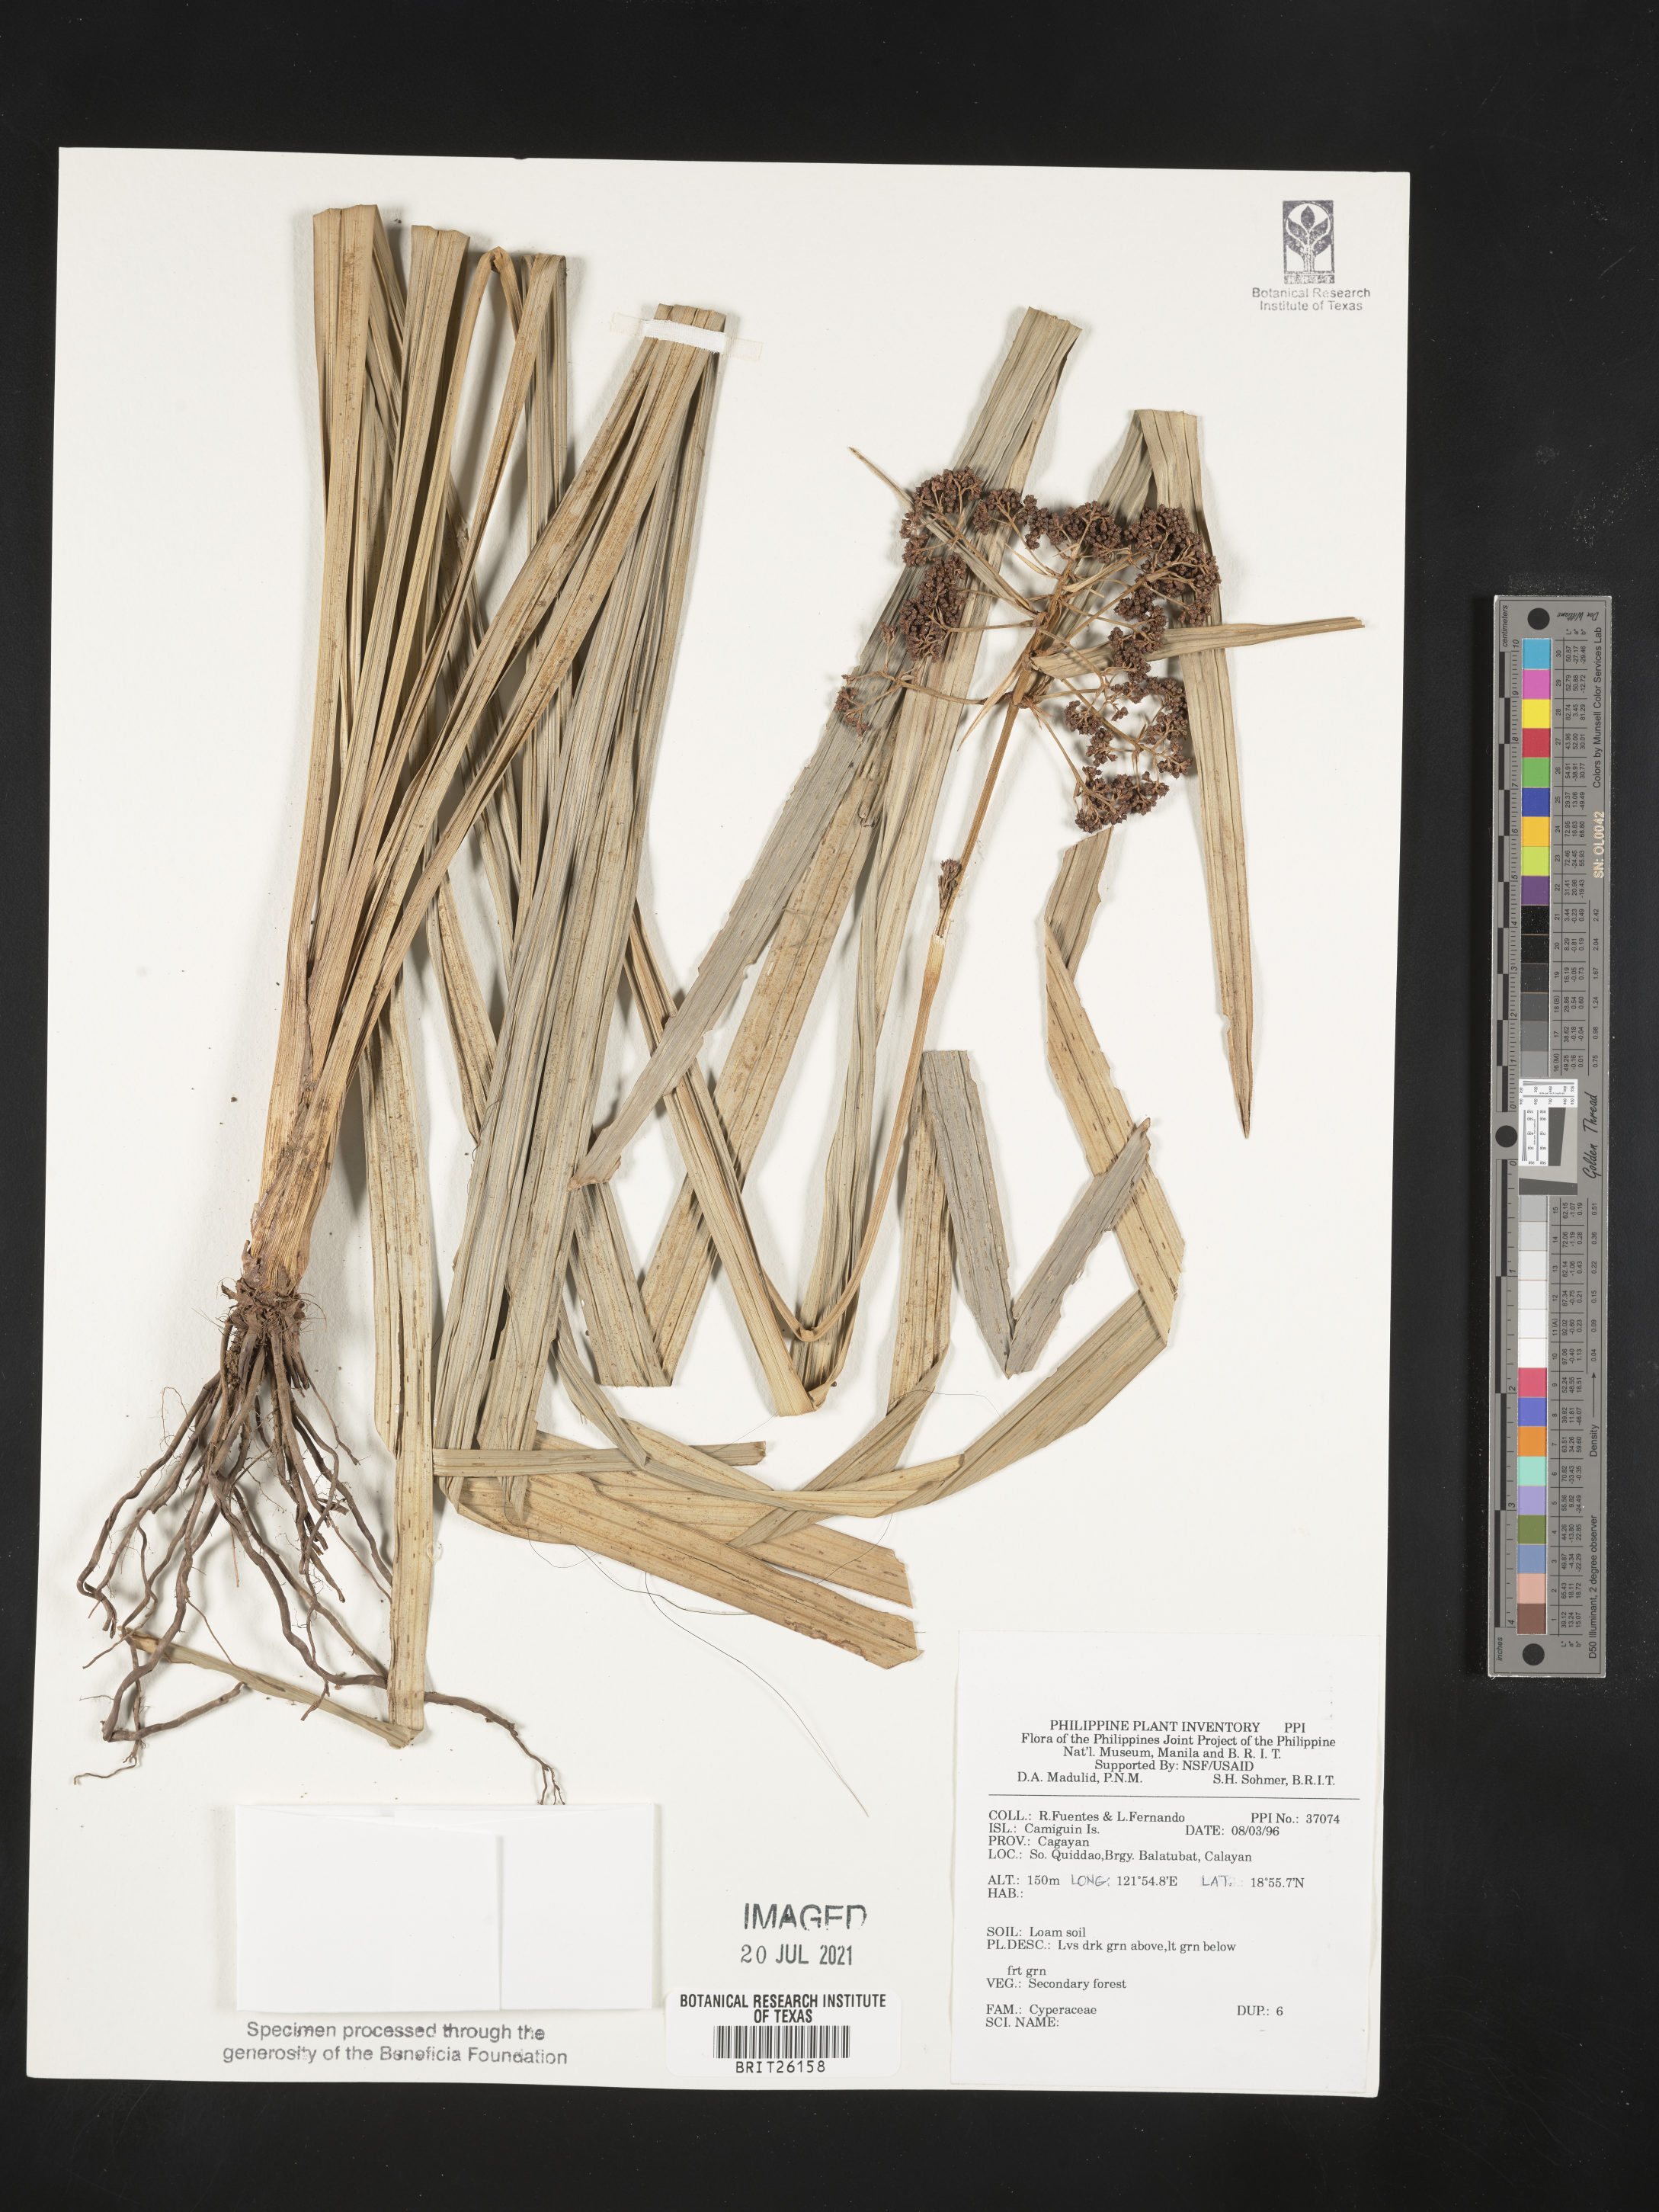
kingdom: Plantae
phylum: Tracheophyta
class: Liliopsida
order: Poales
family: Cyperaceae
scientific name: Cyperaceae
